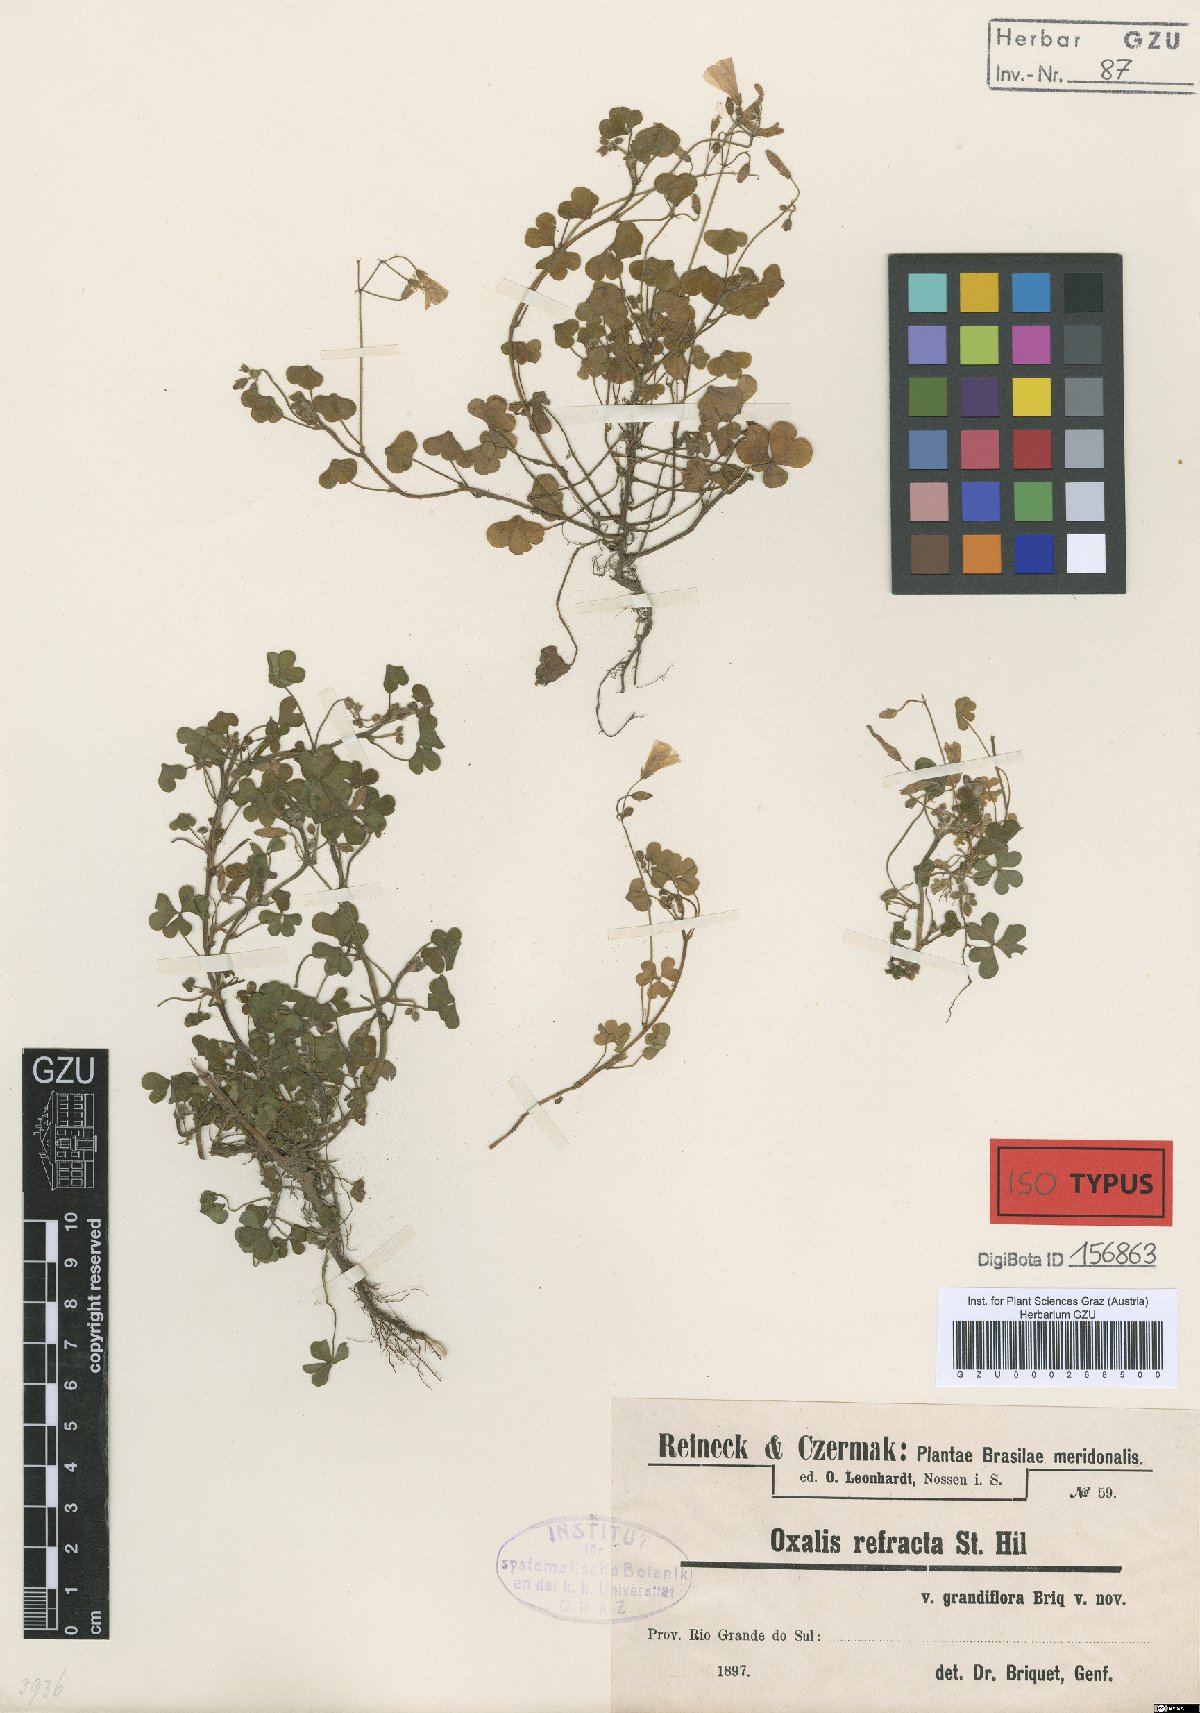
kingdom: Plantae
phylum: Tracheophyta
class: Magnoliopsida
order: Oxalidales
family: Oxalidaceae
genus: Oxalis
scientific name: Oxalis niederleinii
